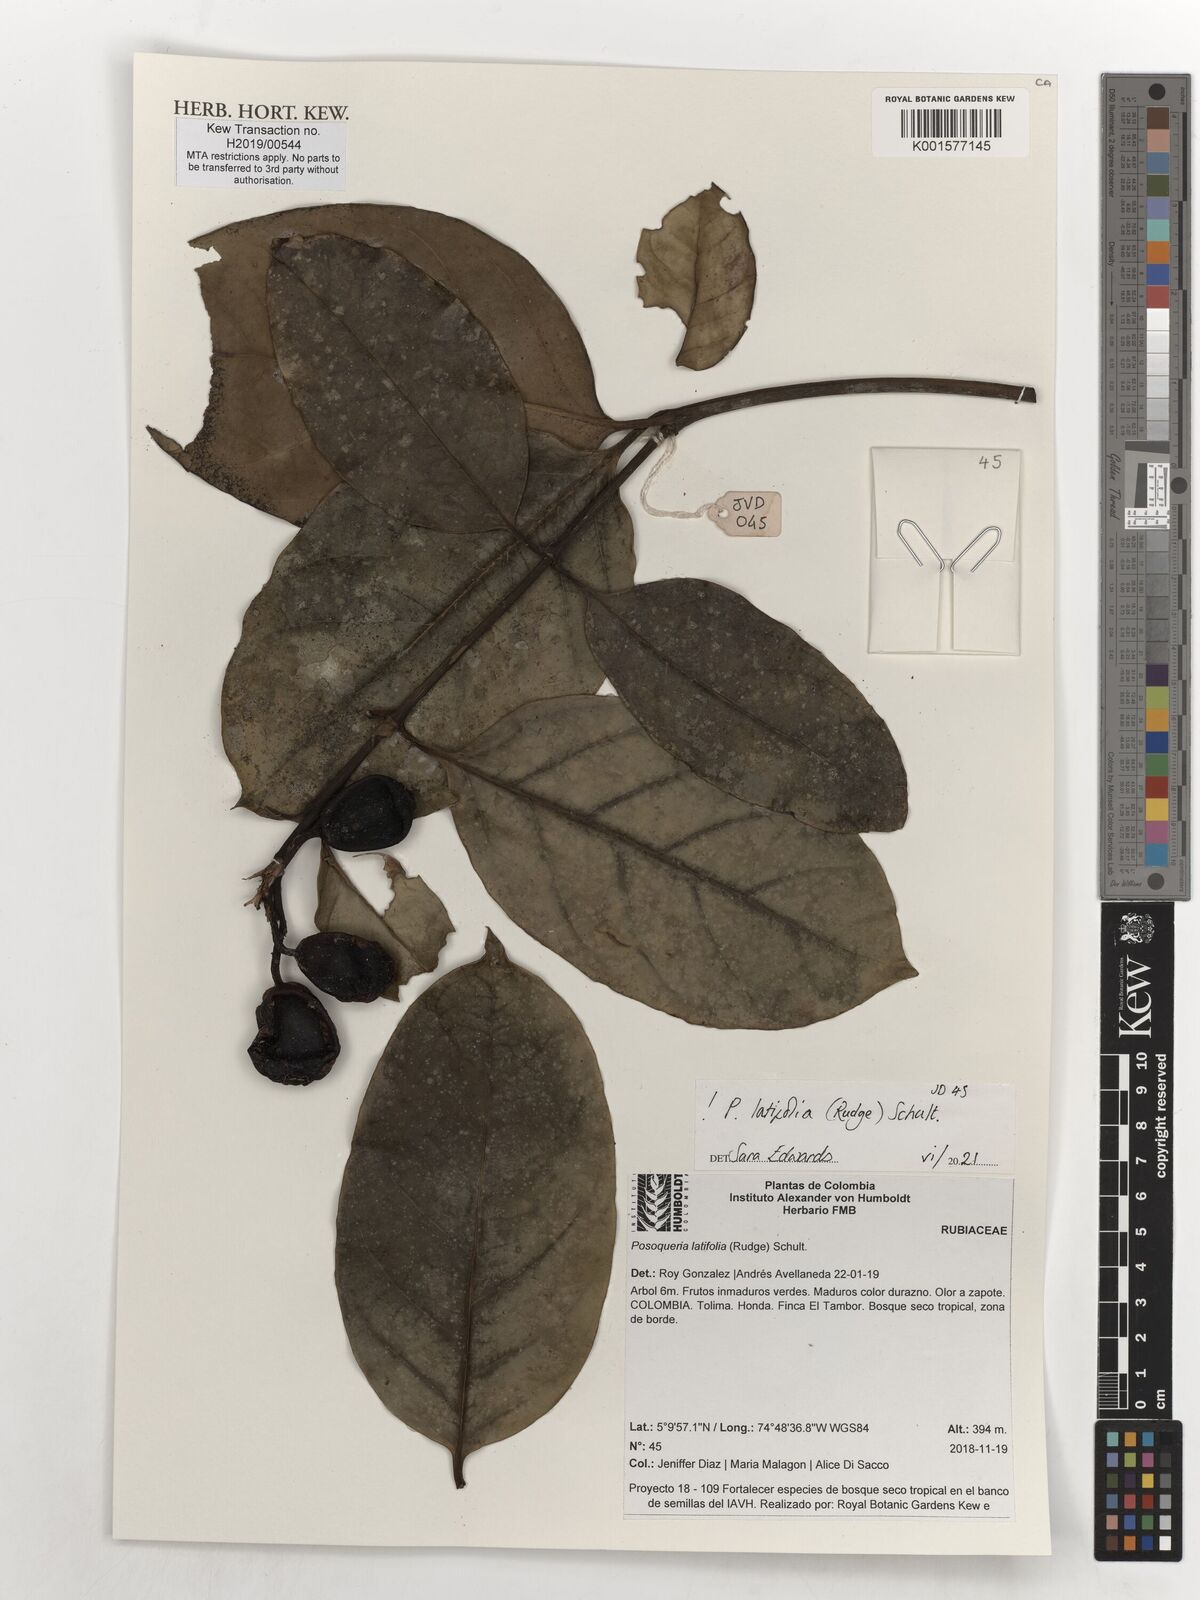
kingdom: Plantae
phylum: Tracheophyta
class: Magnoliopsida
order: Gentianales
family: Rubiaceae
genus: Posoqueria
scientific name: Posoqueria latifolia
